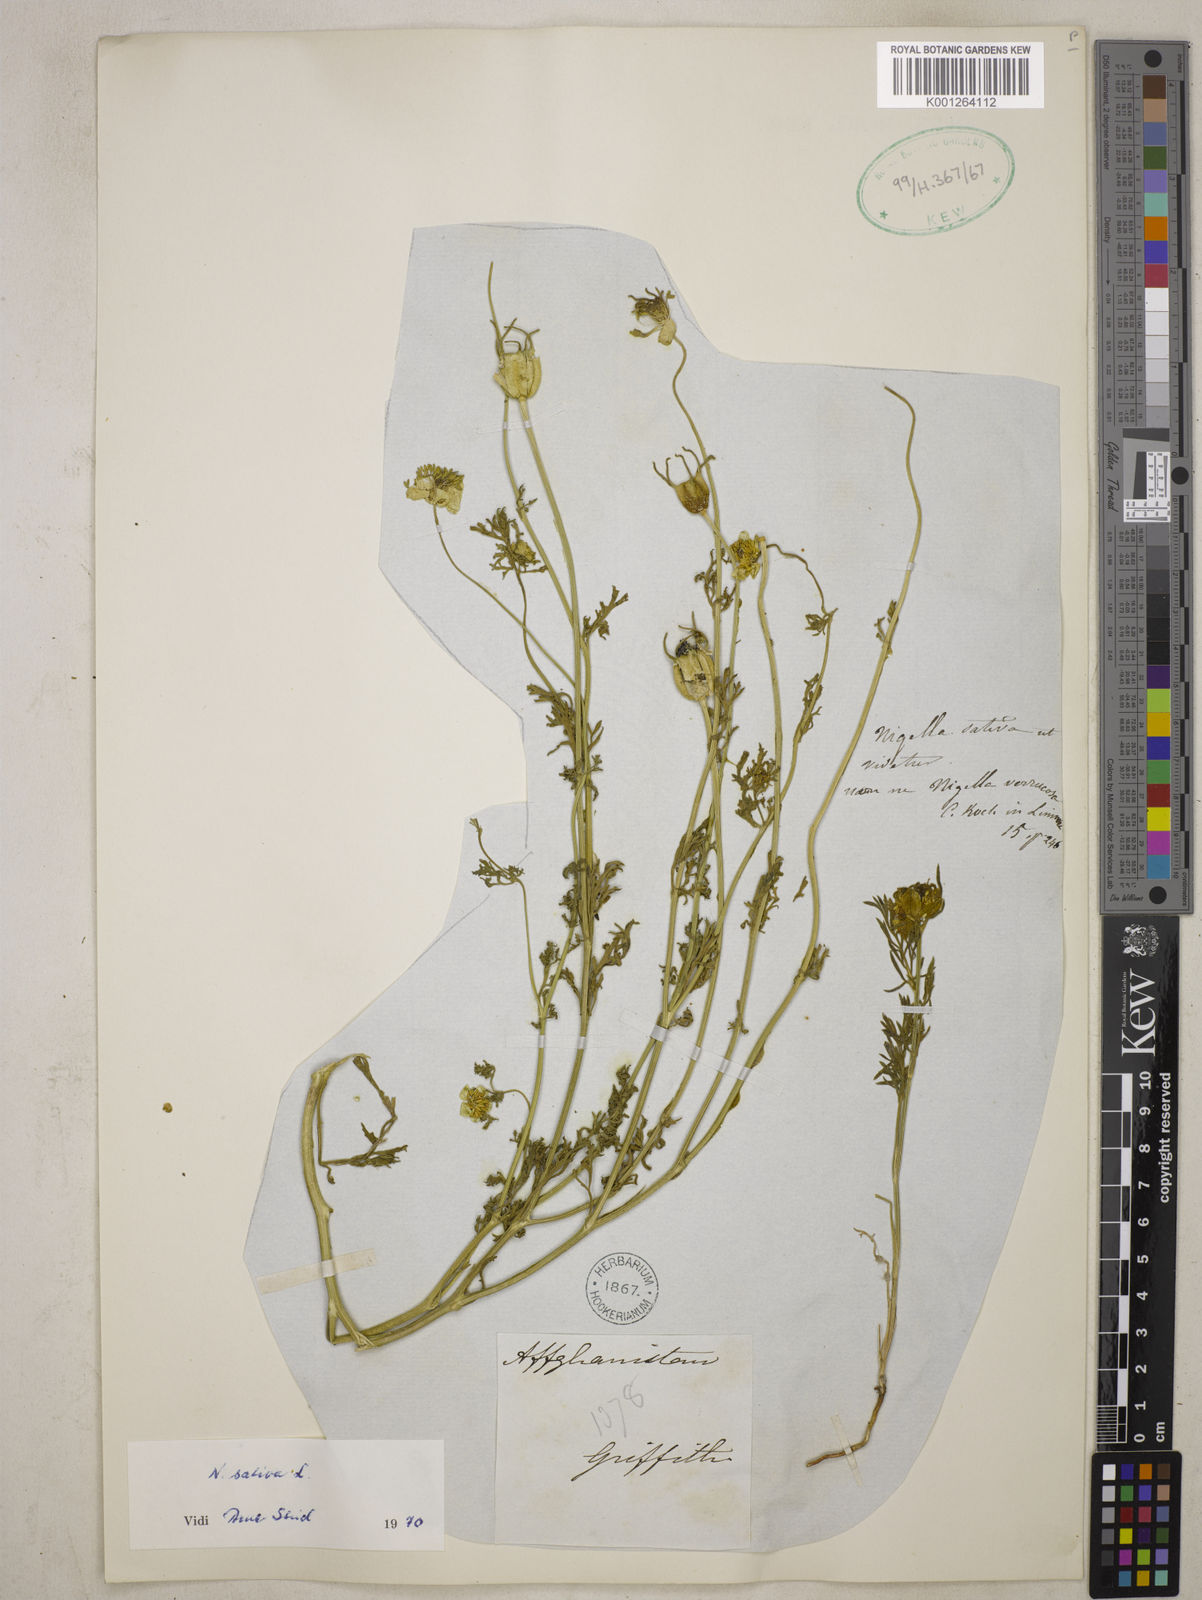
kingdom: Plantae
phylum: Tracheophyta
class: Magnoliopsida
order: Ranunculales
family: Ranunculaceae
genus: Nigella
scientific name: Nigella sativa
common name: Black-cumin
